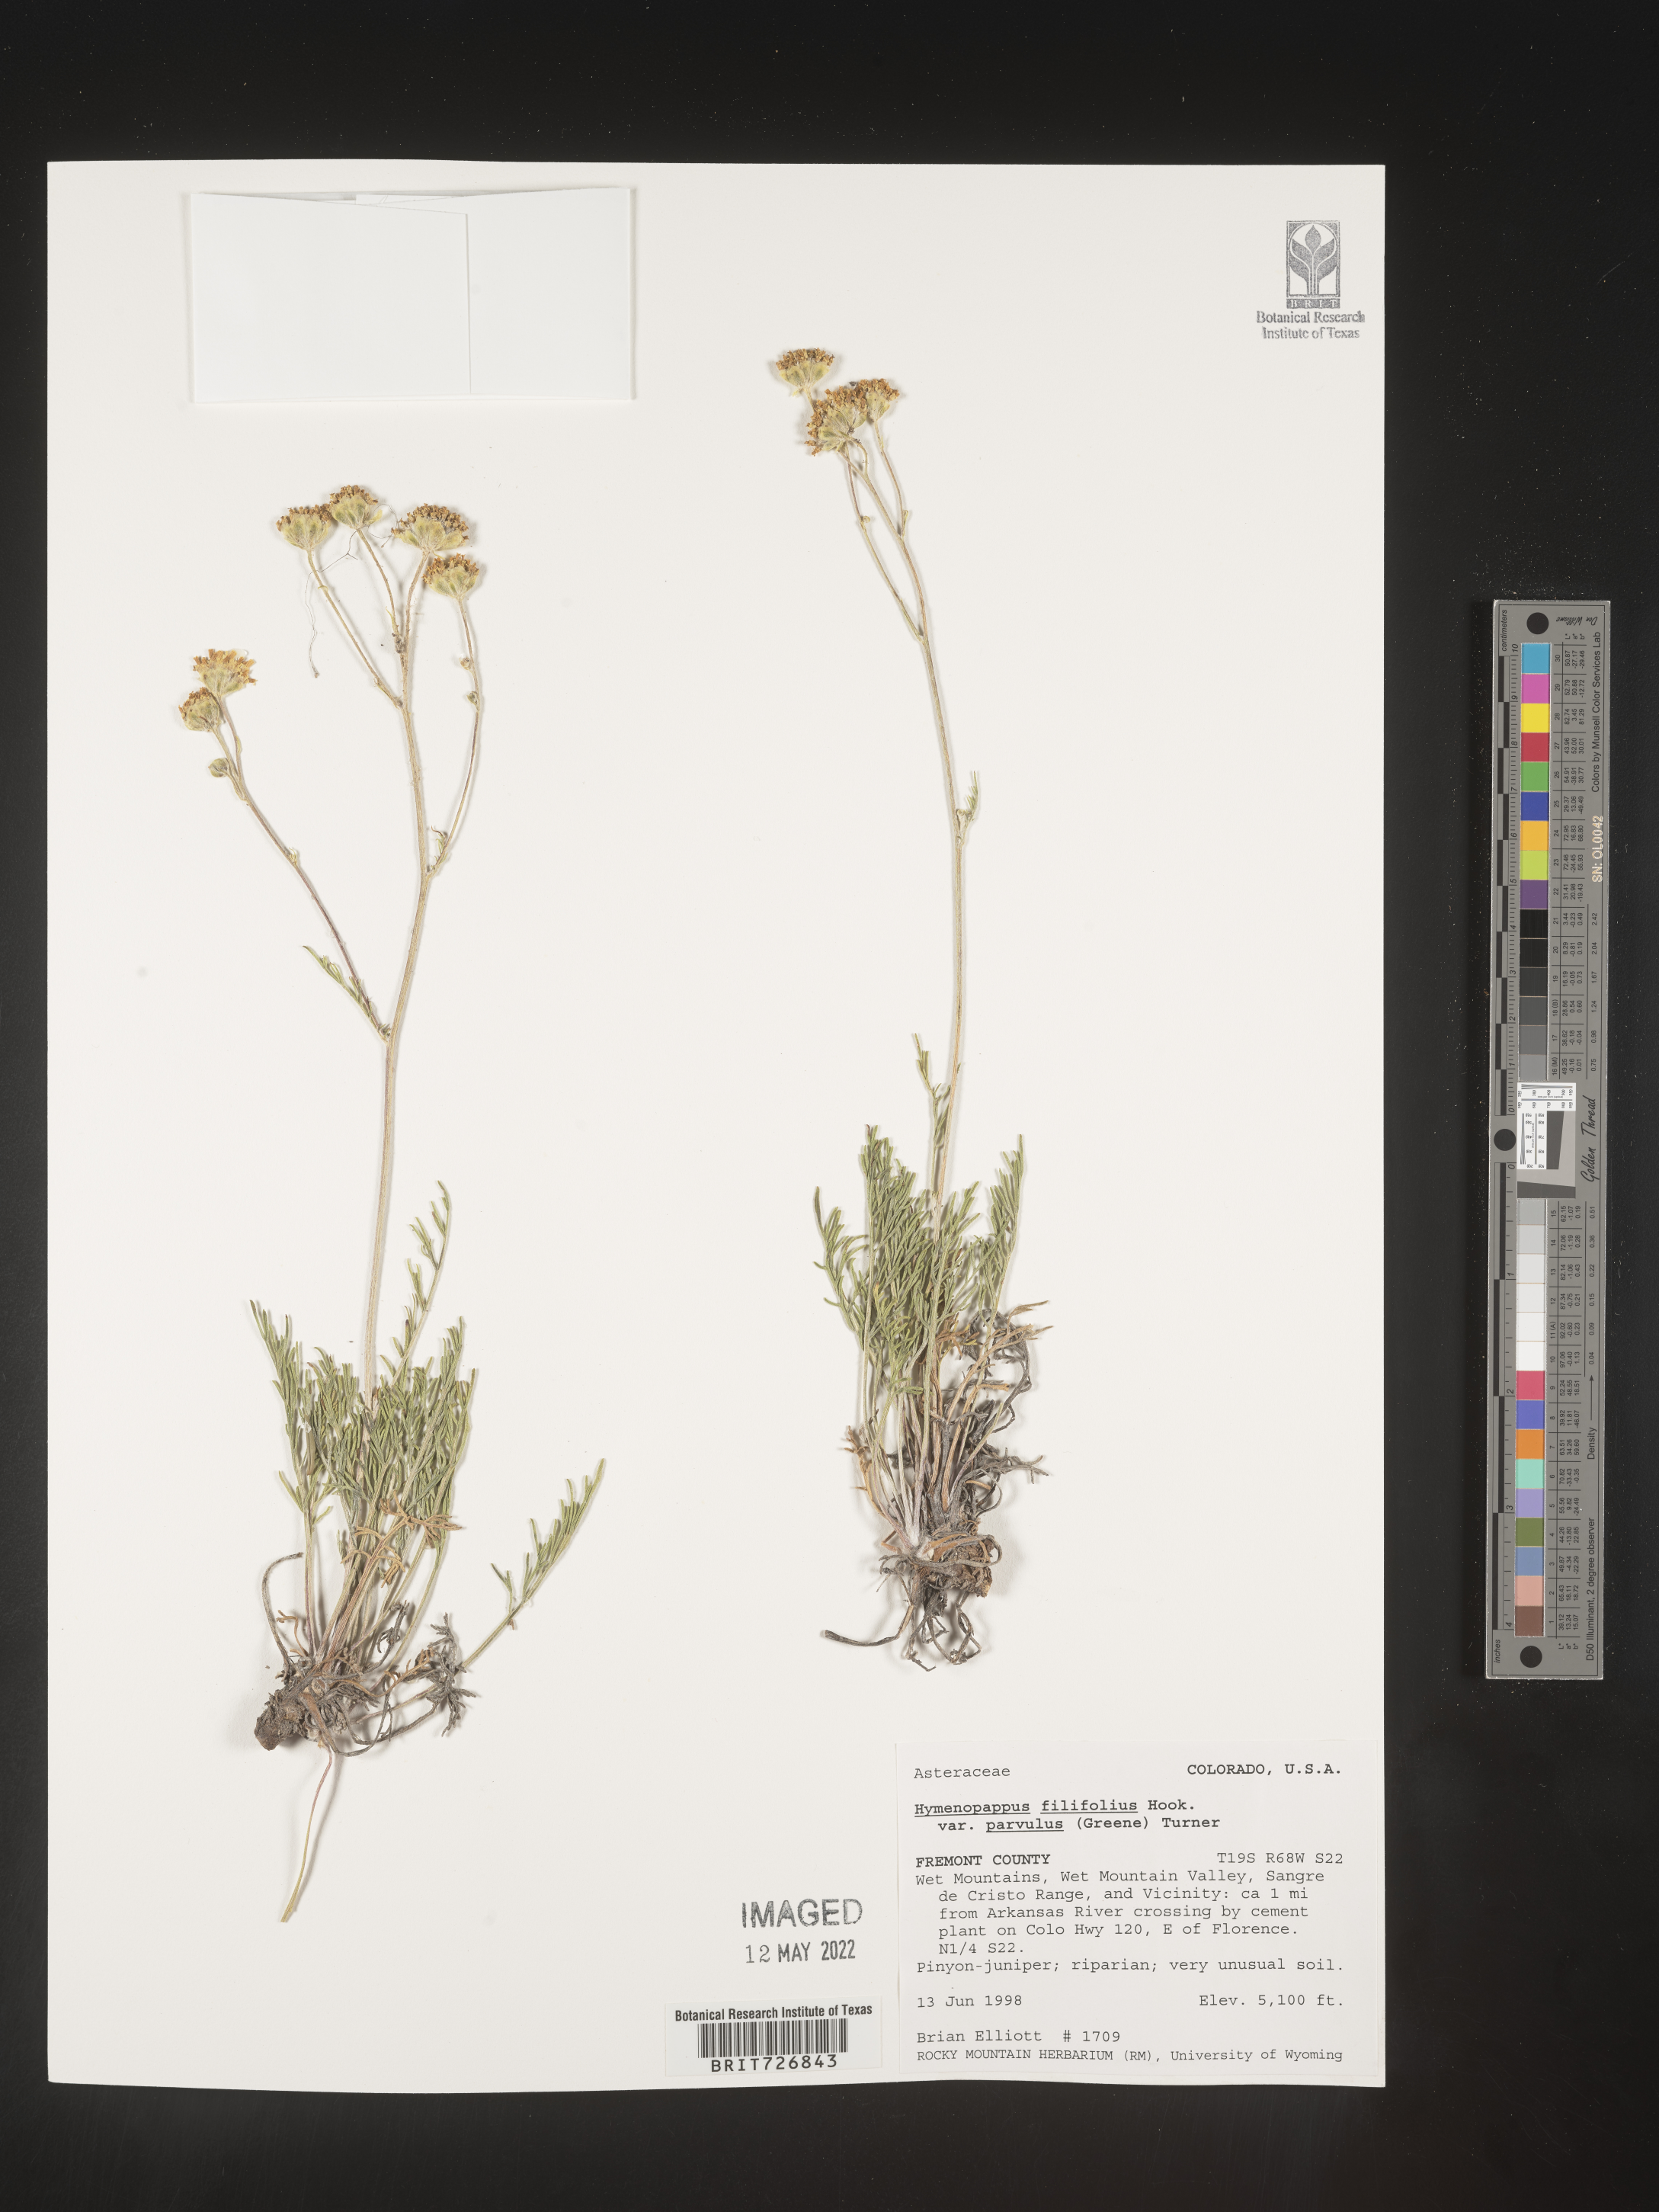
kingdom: Plantae
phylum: Tracheophyta
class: Magnoliopsida
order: Asterales
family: Asteraceae
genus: Hymenopappus
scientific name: Hymenopappus filifolius
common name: Columbia cutleaf
